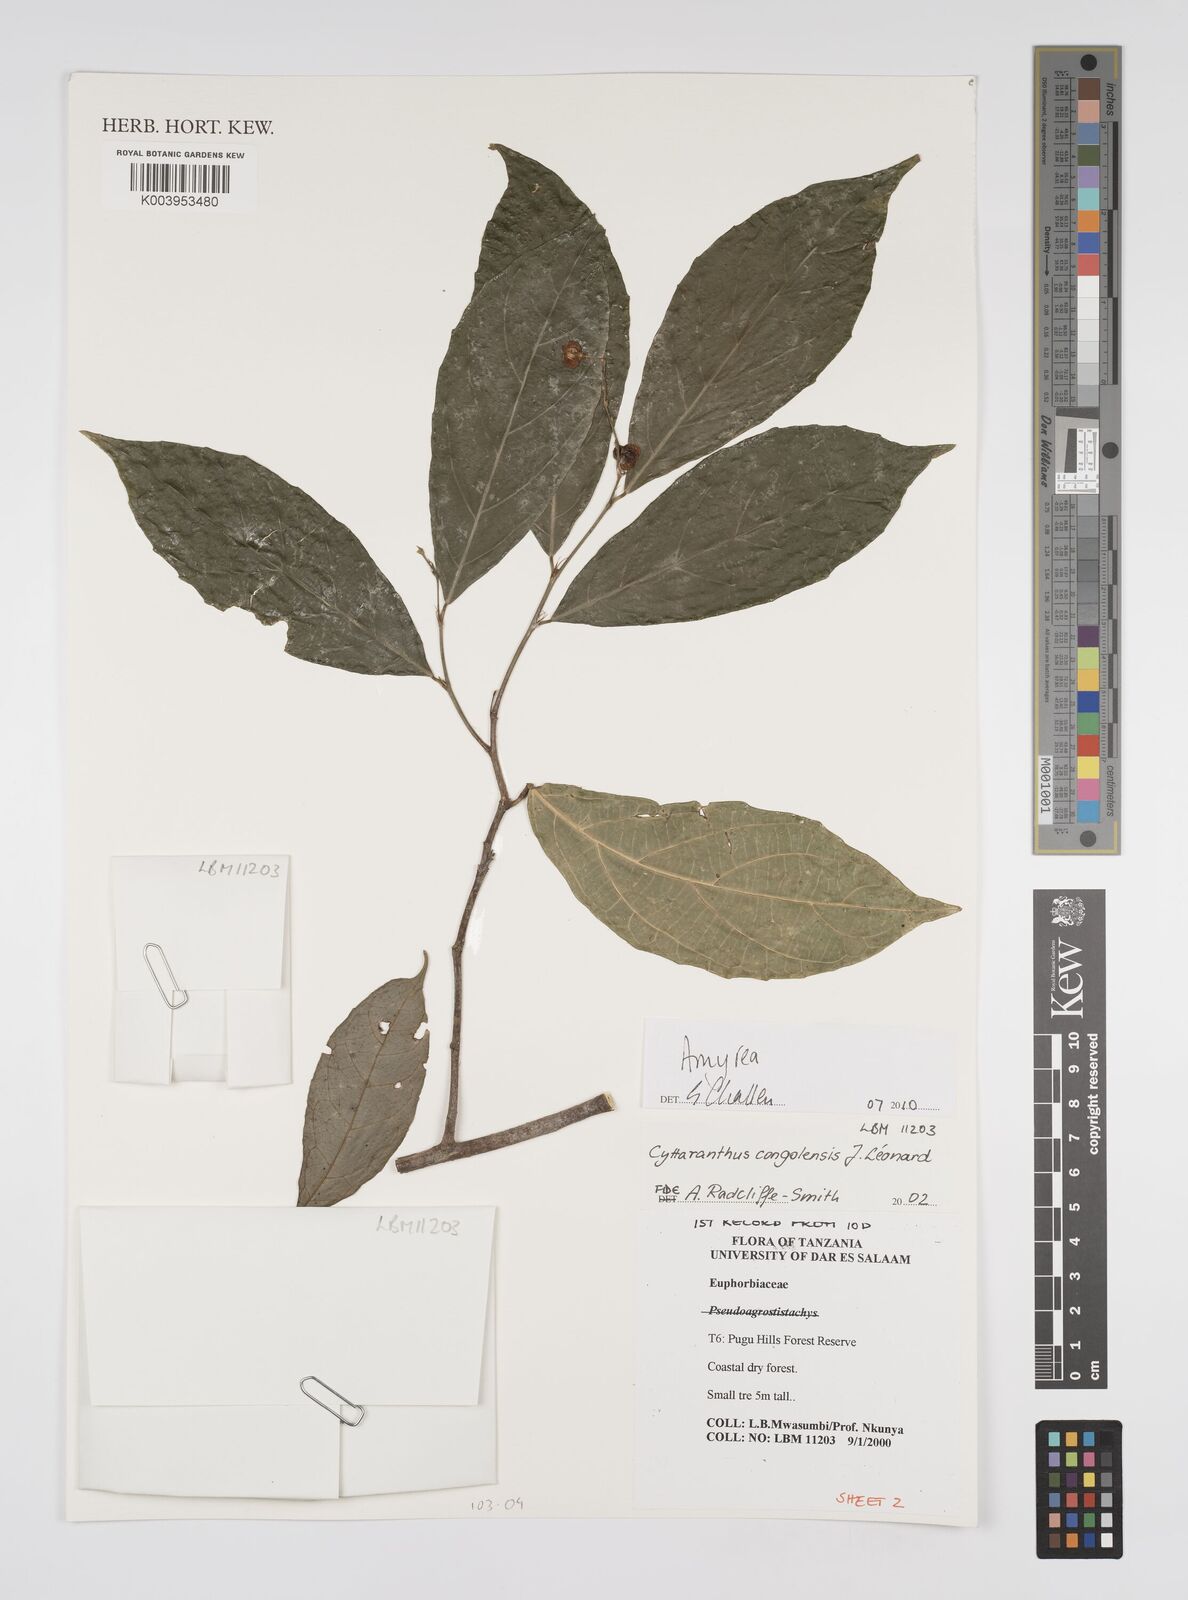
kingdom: Plantae
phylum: Tracheophyta
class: Magnoliopsida
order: Malpighiales
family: Euphorbiaceae
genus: Amyrea
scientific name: Amyrea
